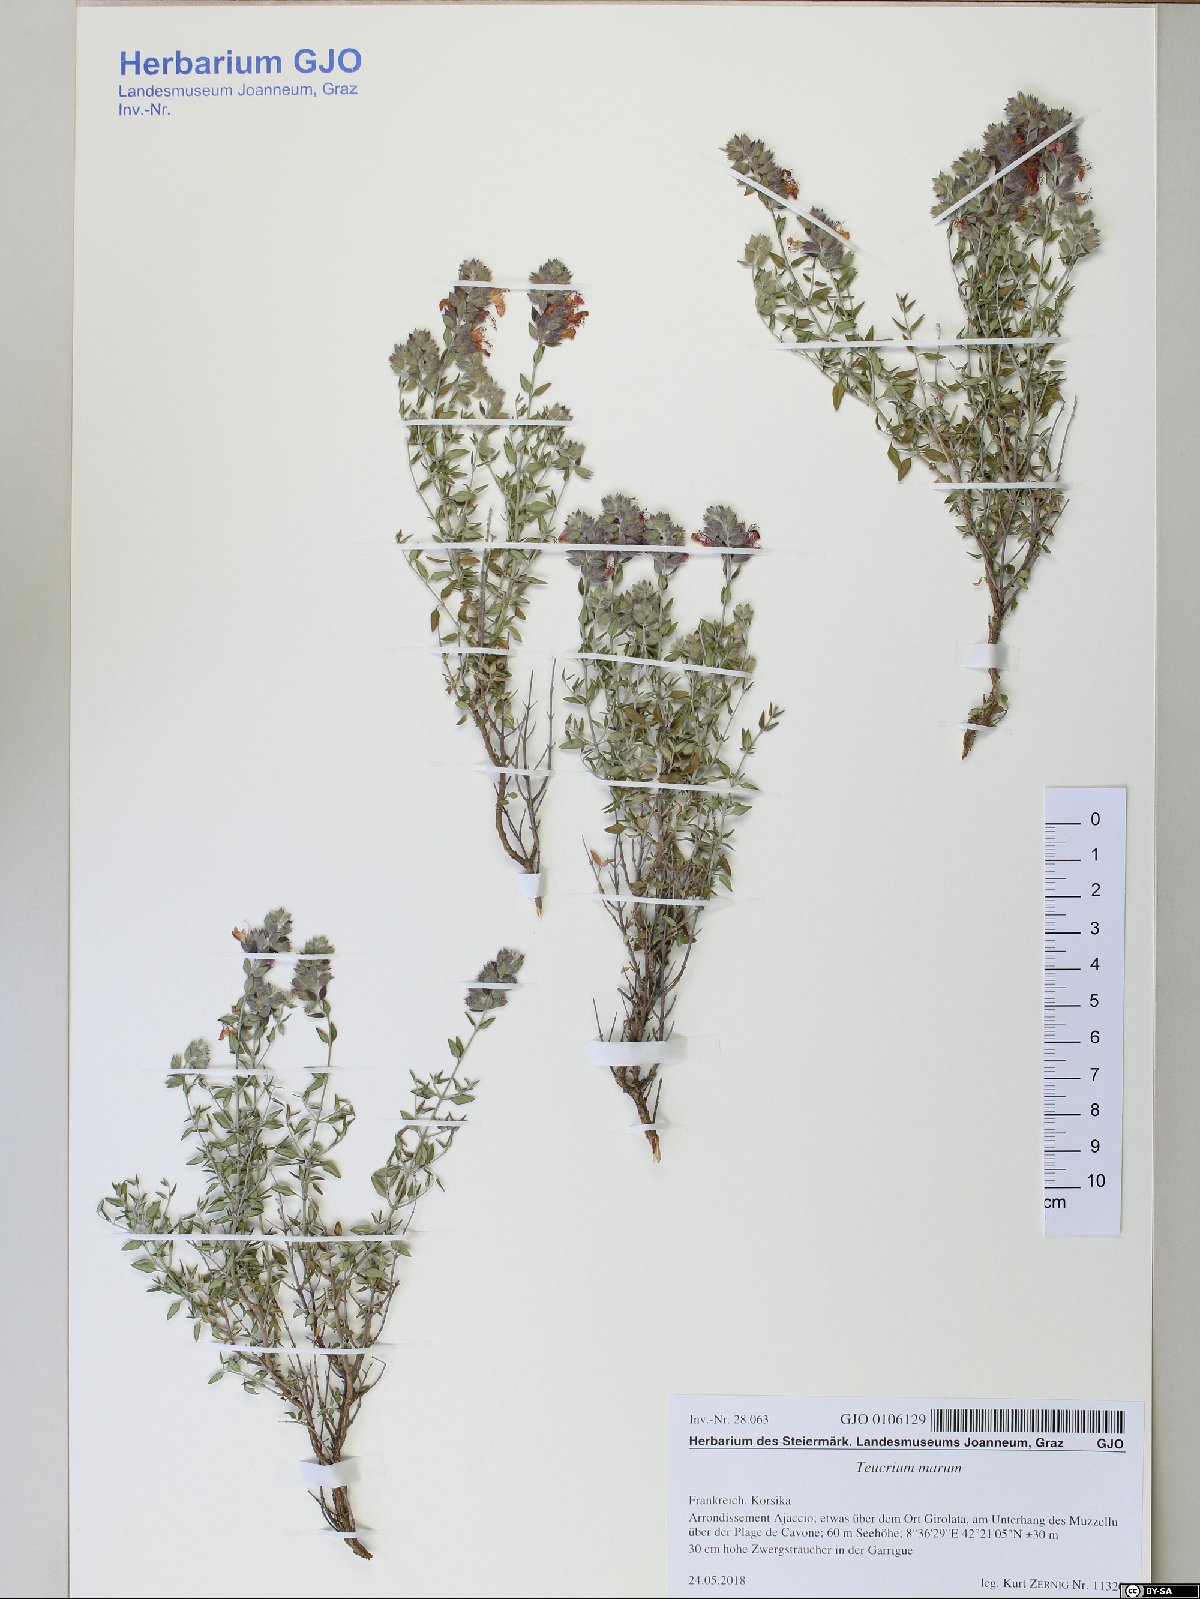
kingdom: Plantae
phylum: Tracheophyta
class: Magnoliopsida
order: Lamiales
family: Lamiaceae
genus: Teucrium
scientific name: Teucrium marum
